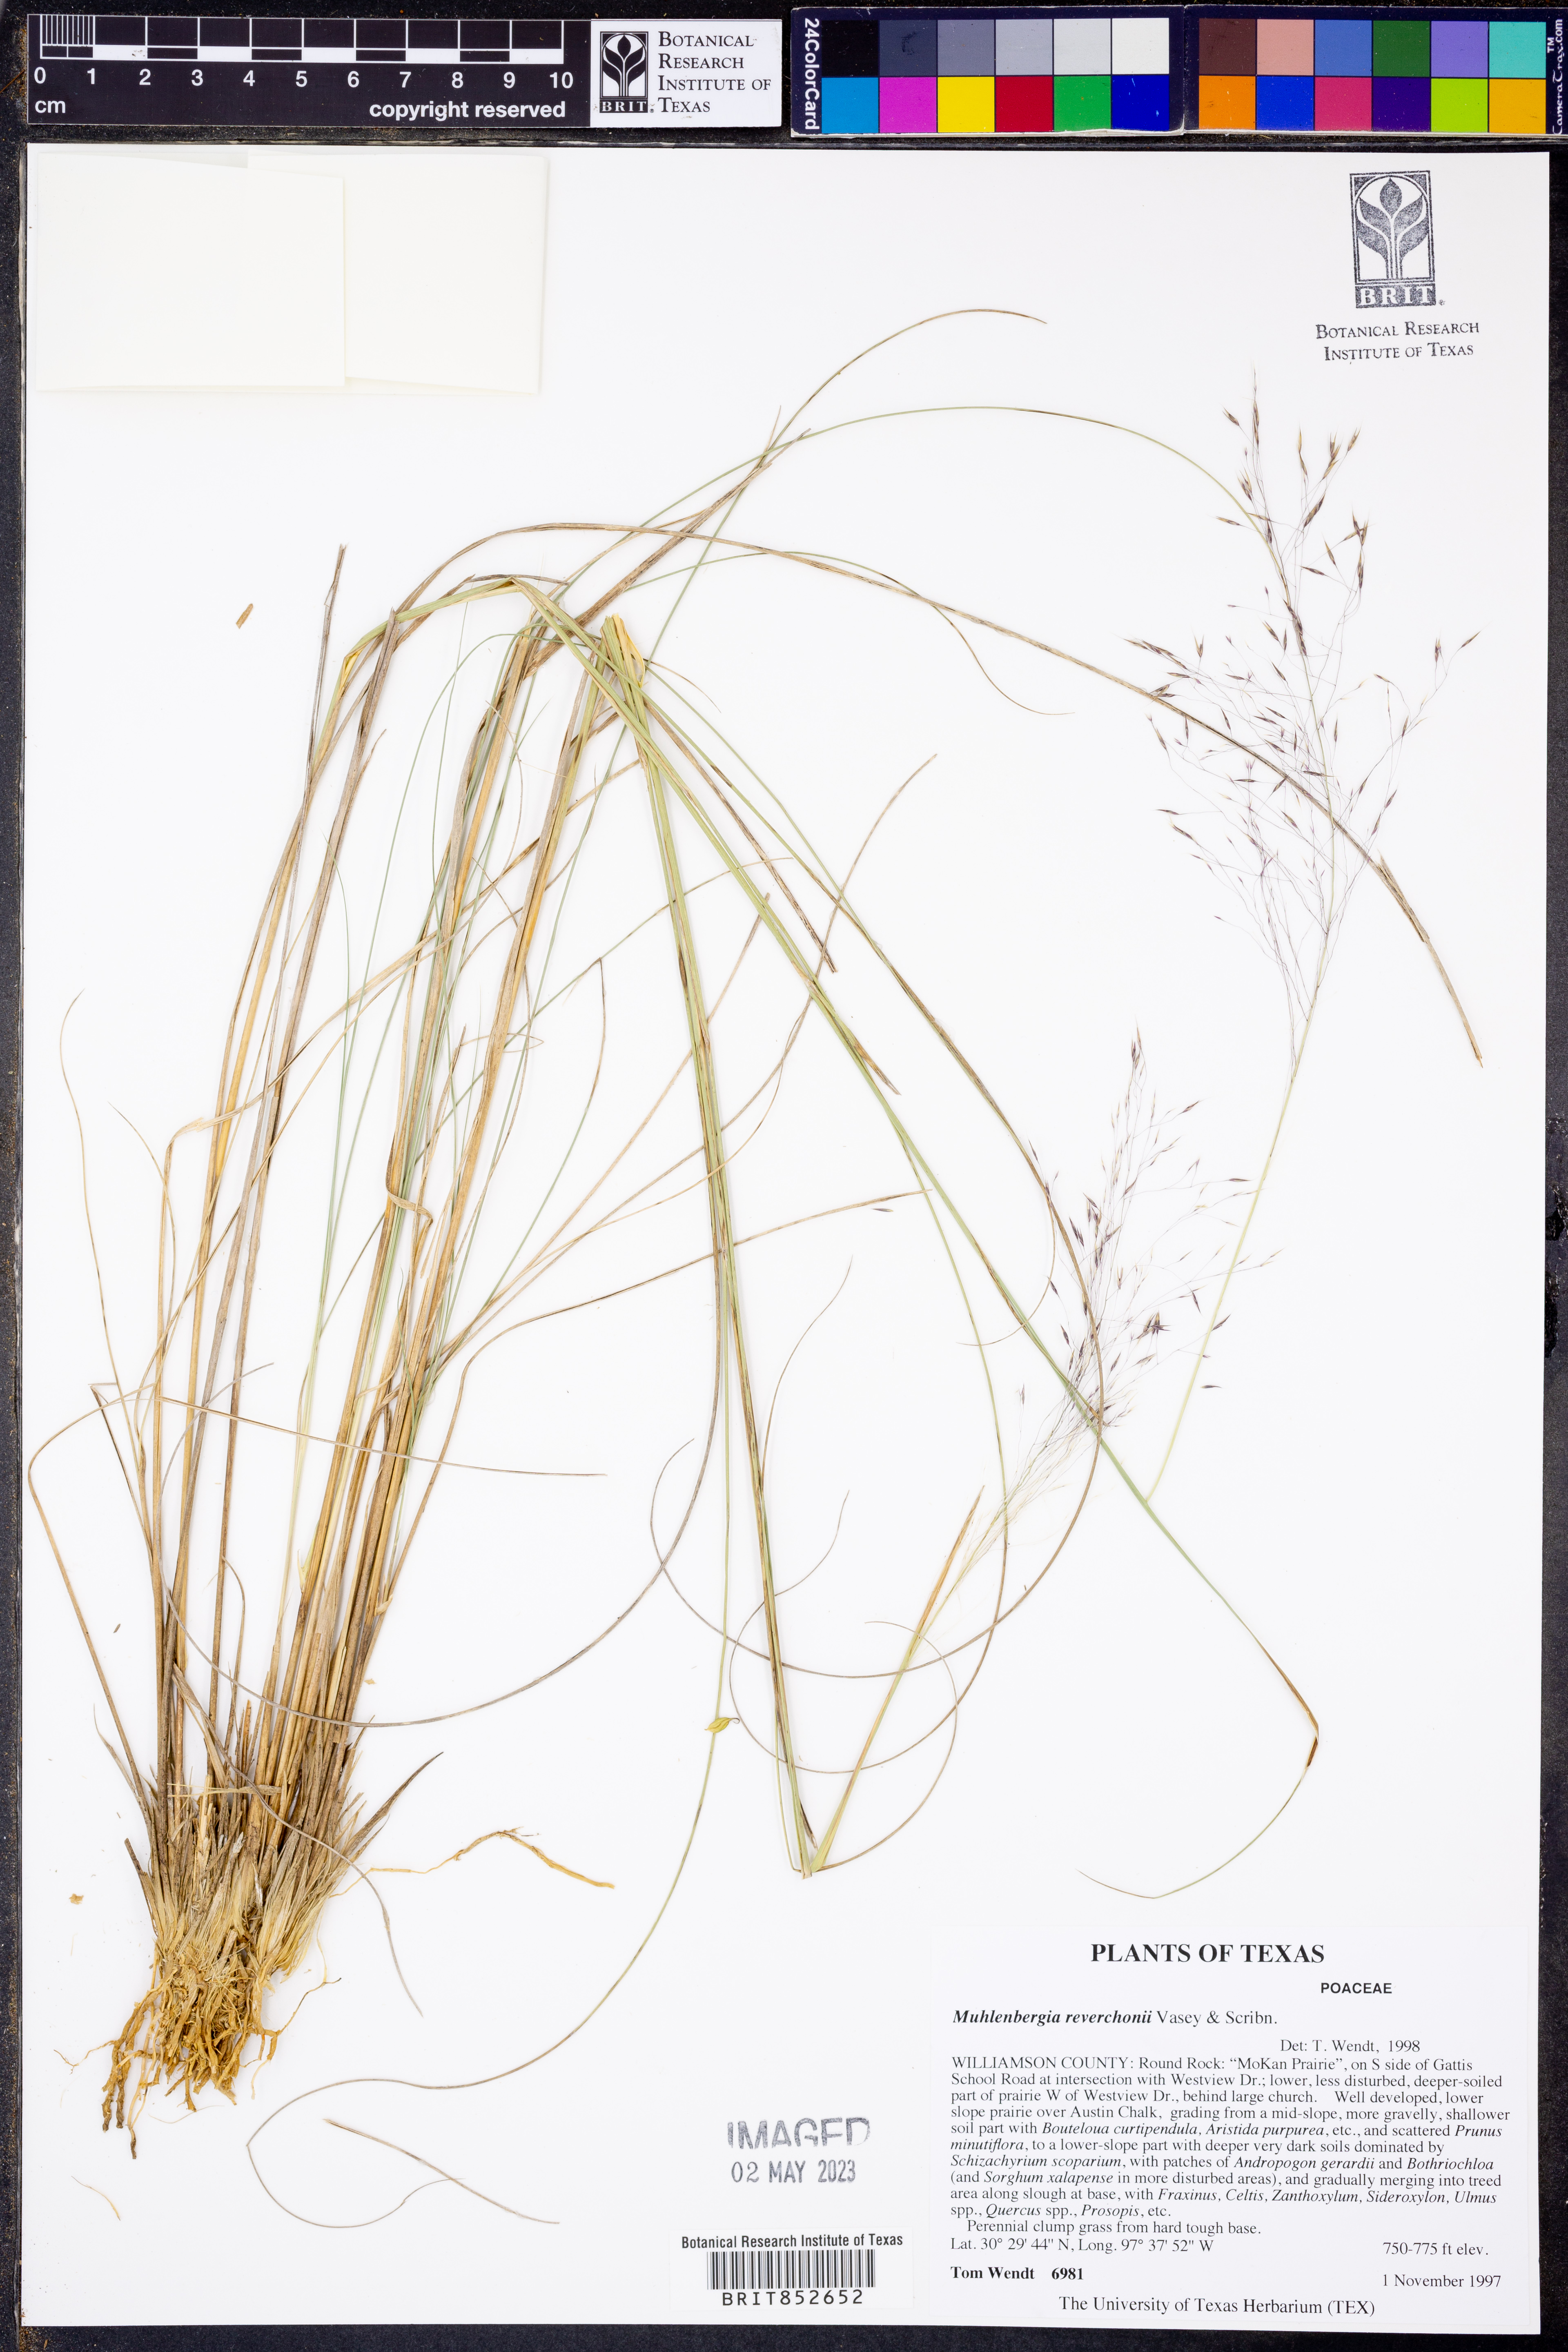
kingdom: Plantae
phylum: Tracheophyta
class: Liliopsida
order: Poales
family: Poaceae
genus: Muhlenbergia
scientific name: Muhlenbergia reverchonii
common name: Seep muhly
